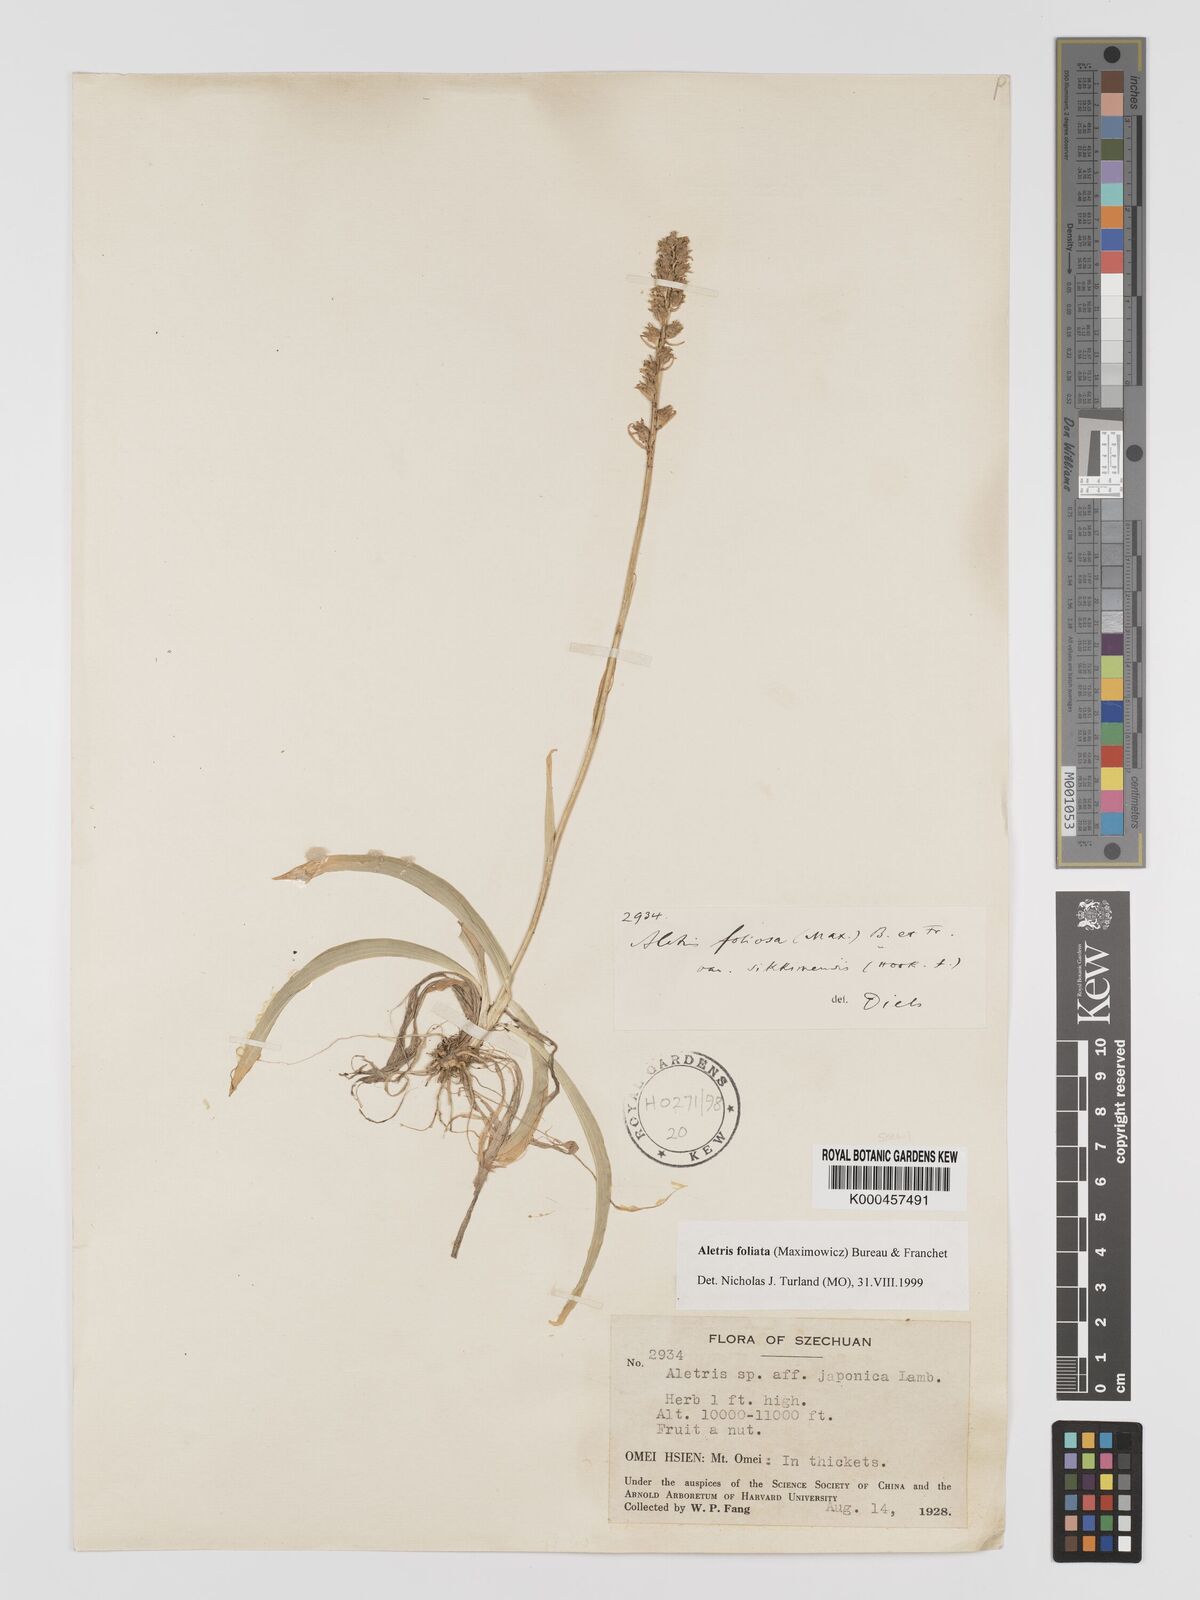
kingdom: Plantae
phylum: Tracheophyta
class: Liliopsida
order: Dioscoreales
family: Nartheciaceae
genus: Aletris
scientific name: Aletris
